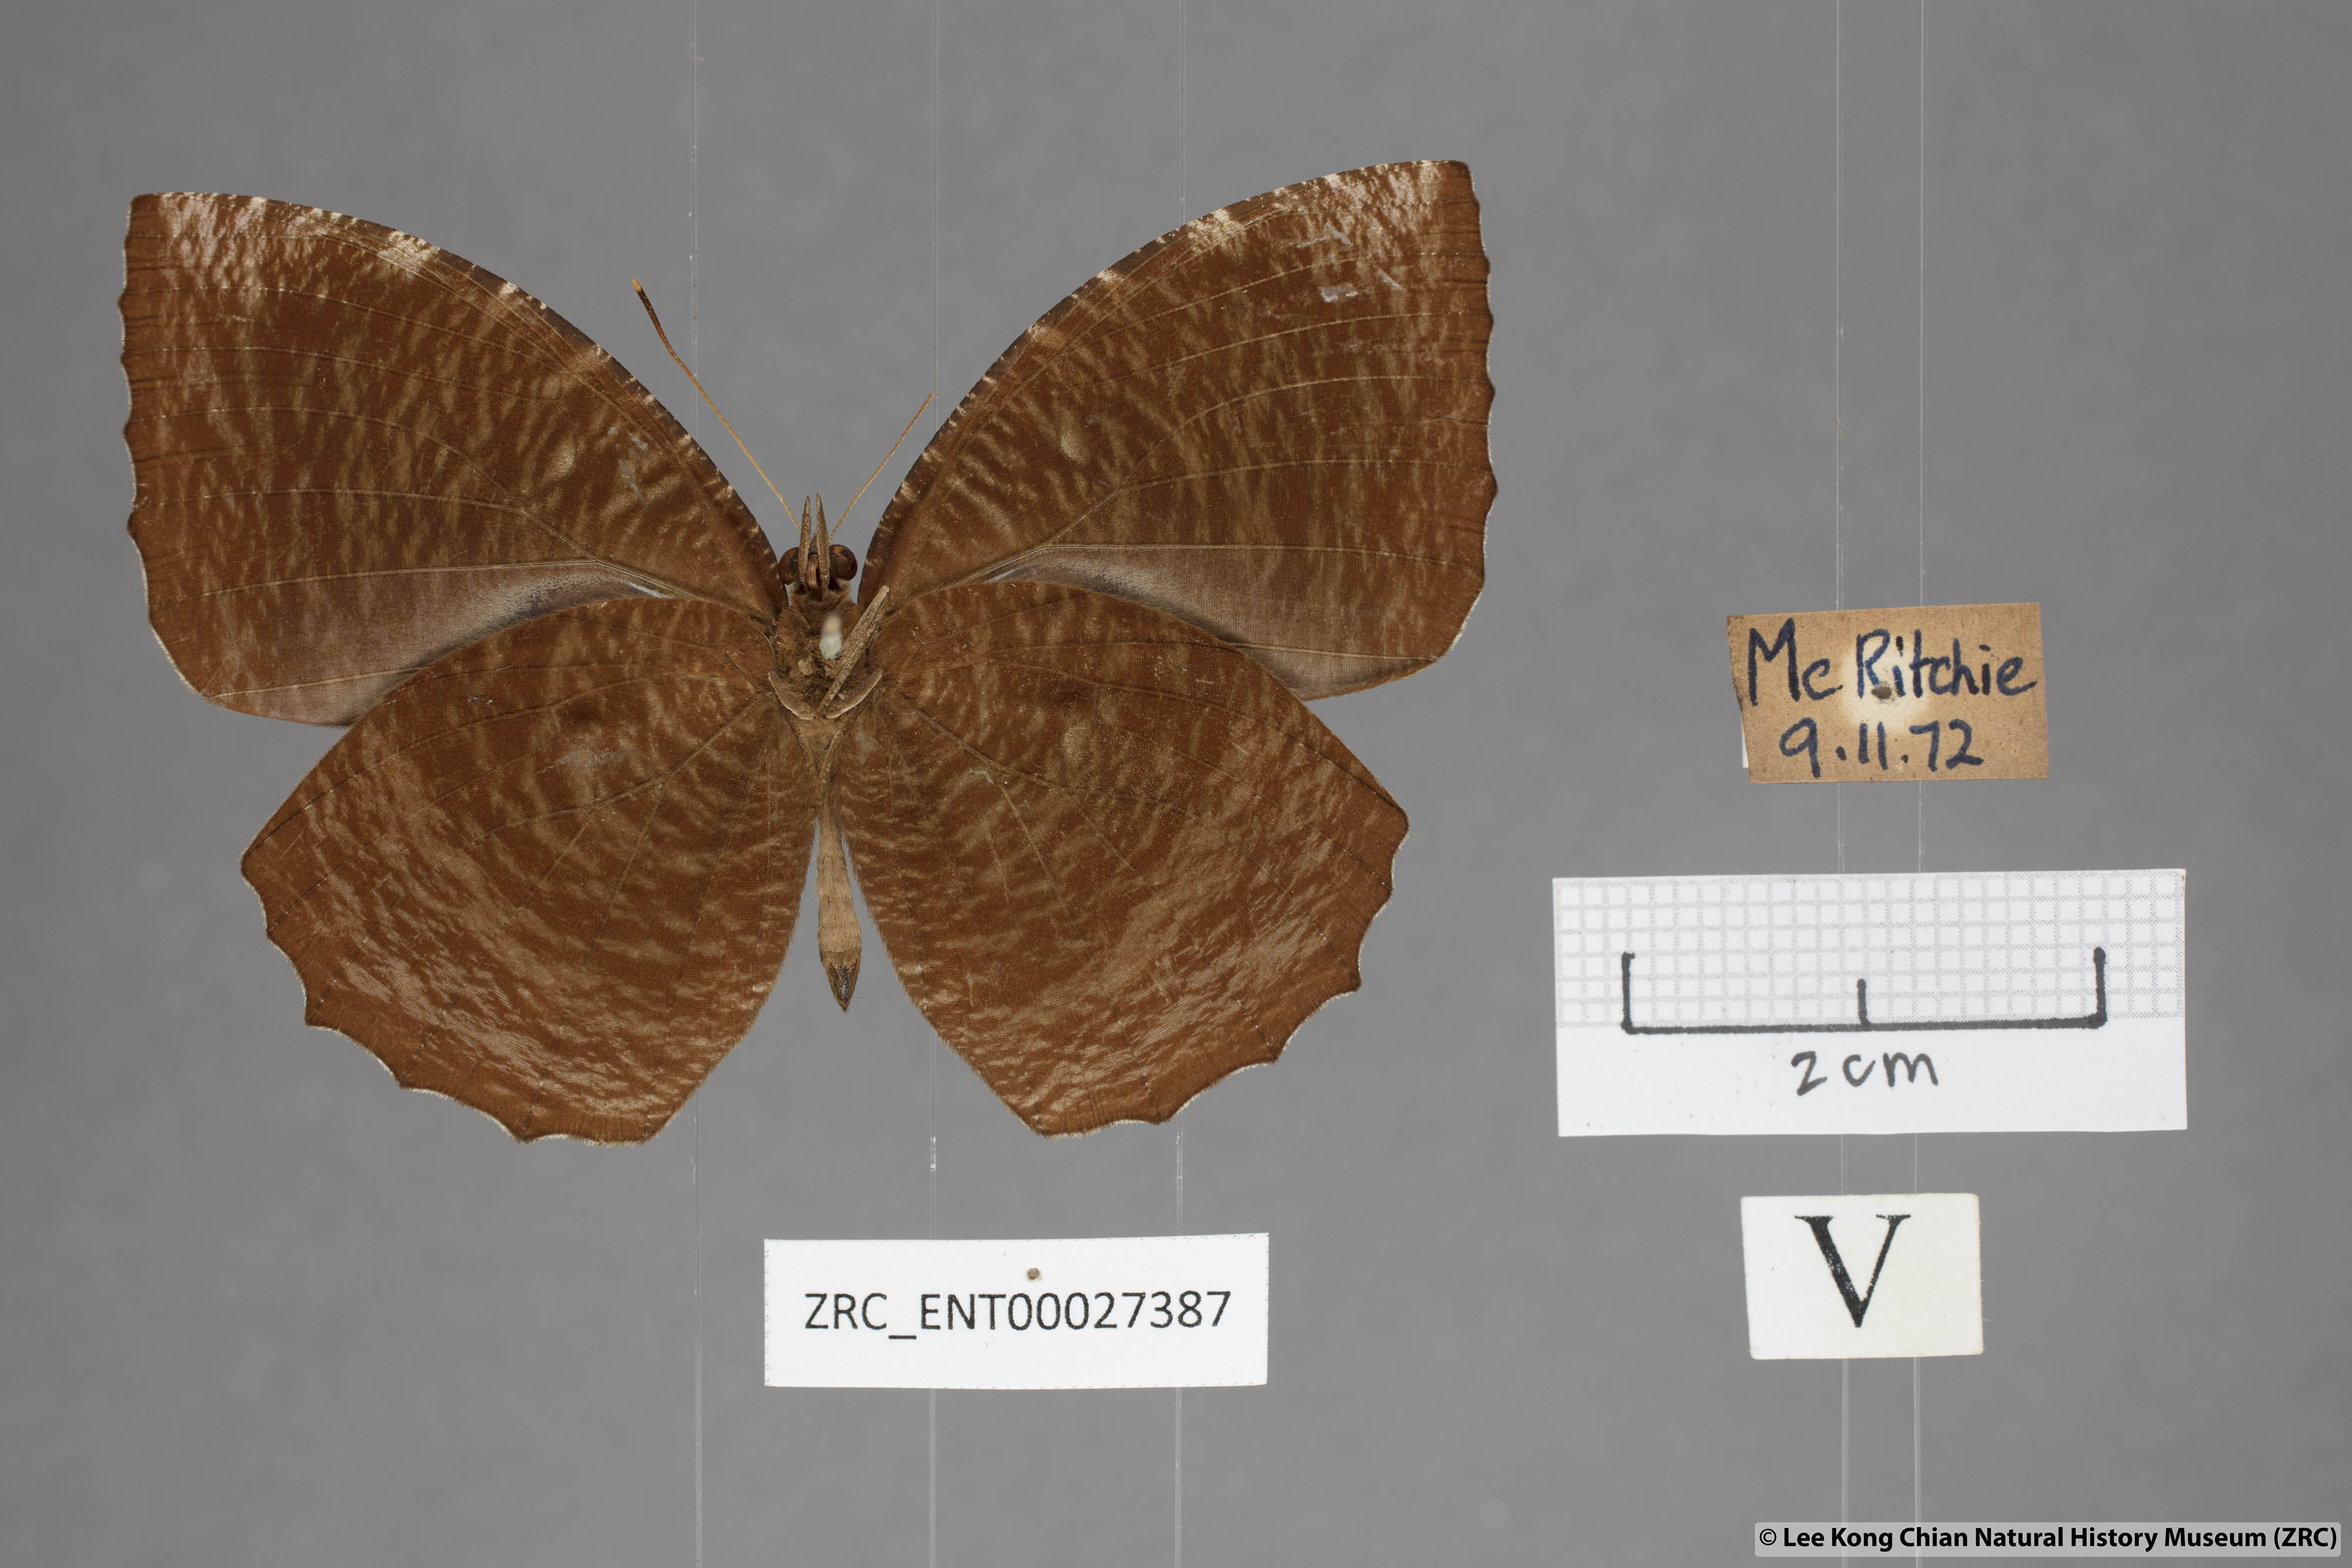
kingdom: Animalia
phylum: Arthropoda
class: Insecta
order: Lepidoptera
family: Nymphalidae
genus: Elymnias
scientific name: Elymnias hypermnestra
